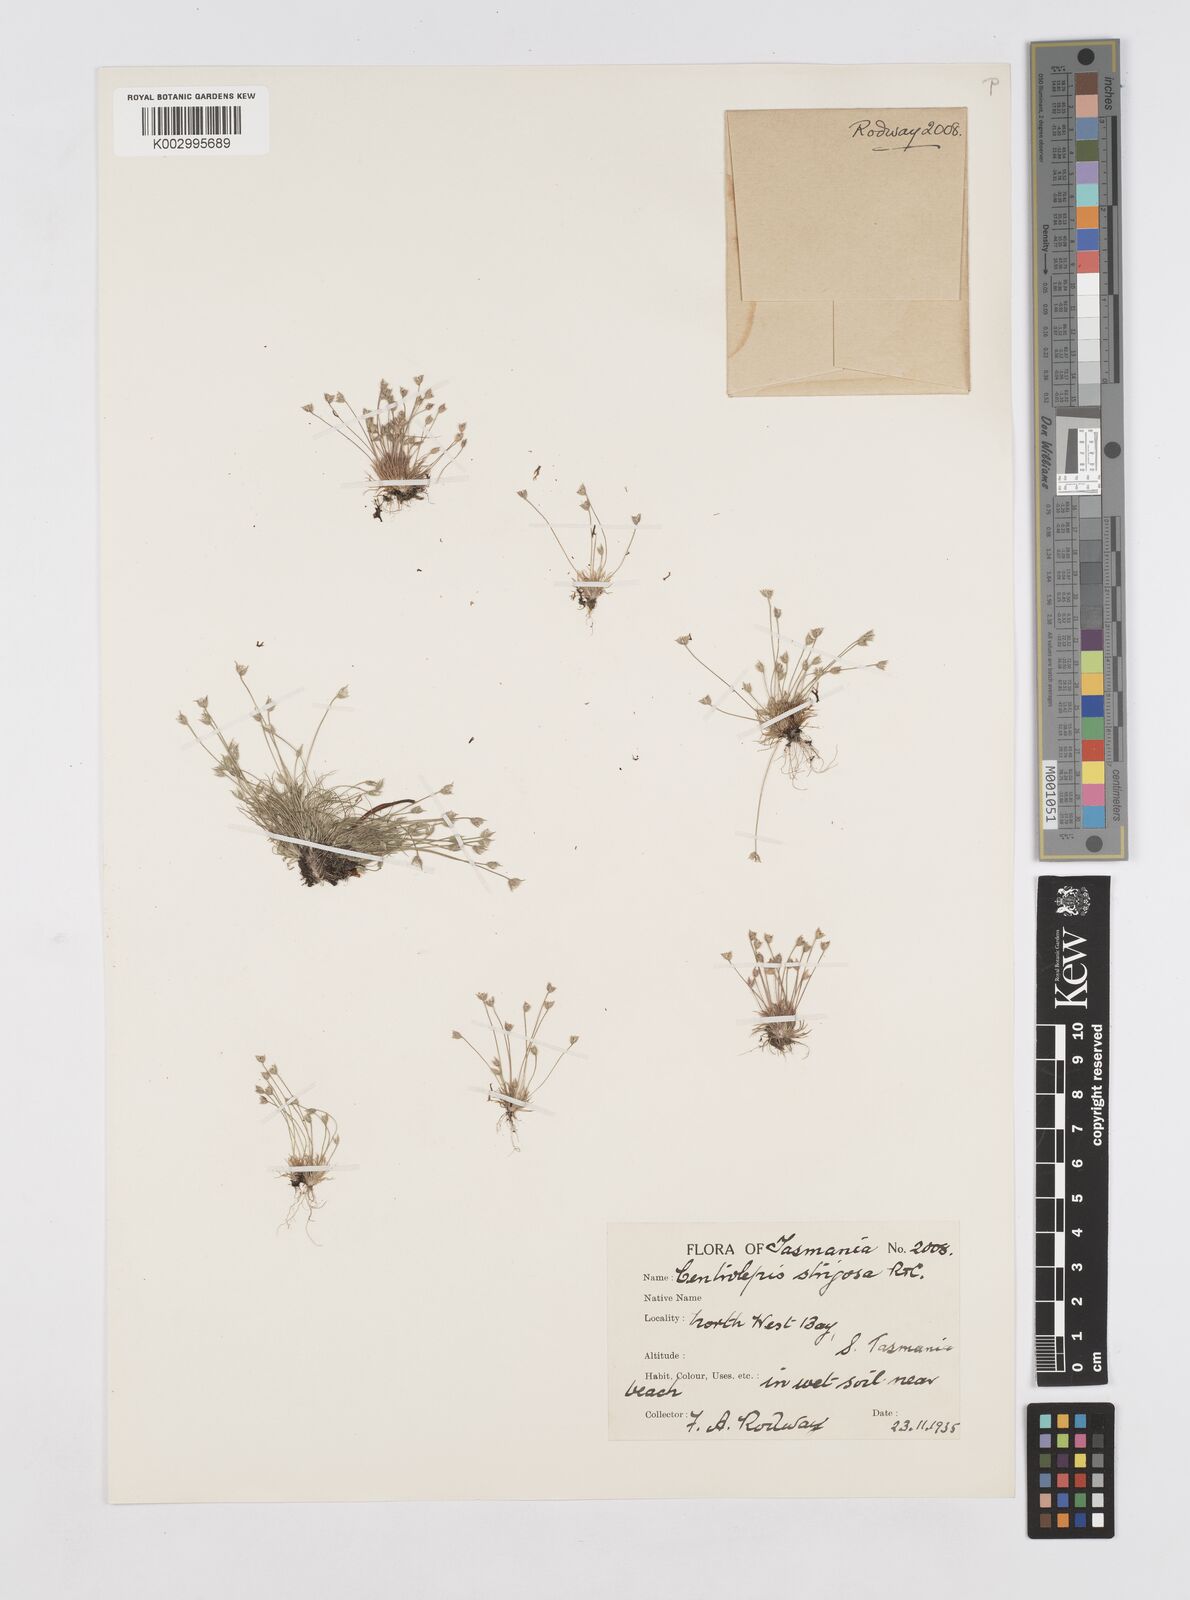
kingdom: Plantae
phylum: Tracheophyta
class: Liliopsida
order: Poales
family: Restionaceae
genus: Centrolepis
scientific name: Centrolepis strigosa
